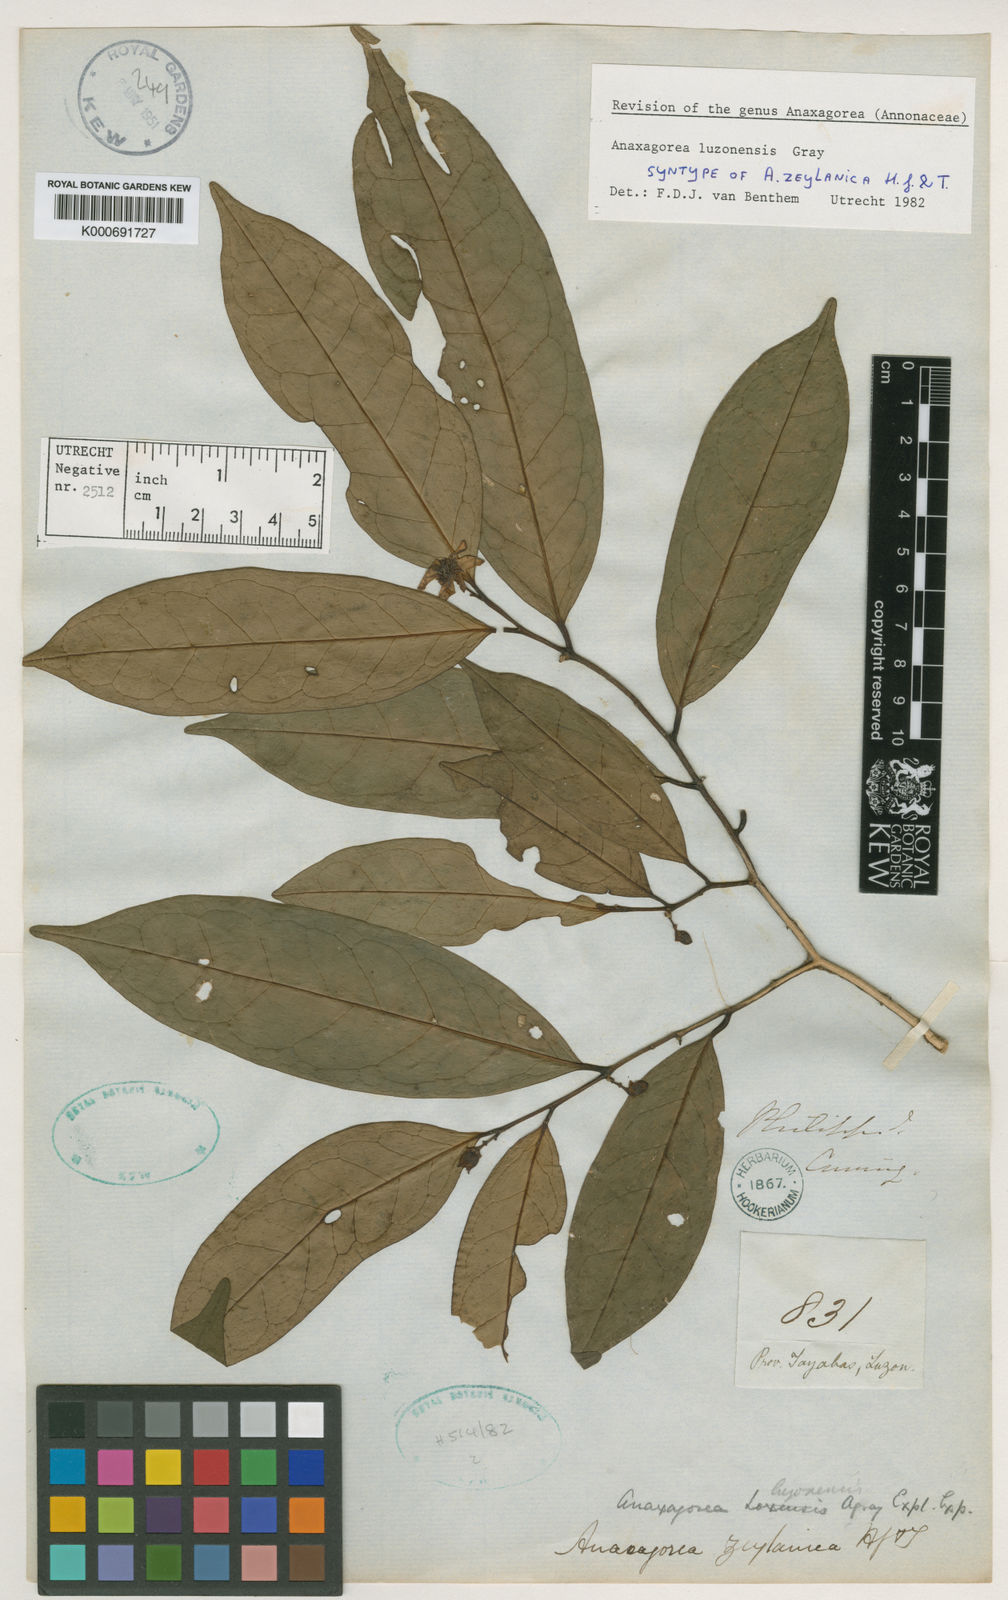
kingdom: Plantae
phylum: Tracheophyta
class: Magnoliopsida
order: Magnoliales
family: Annonaceae
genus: Anaxagorea
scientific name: Anaxagorea luzonensis
